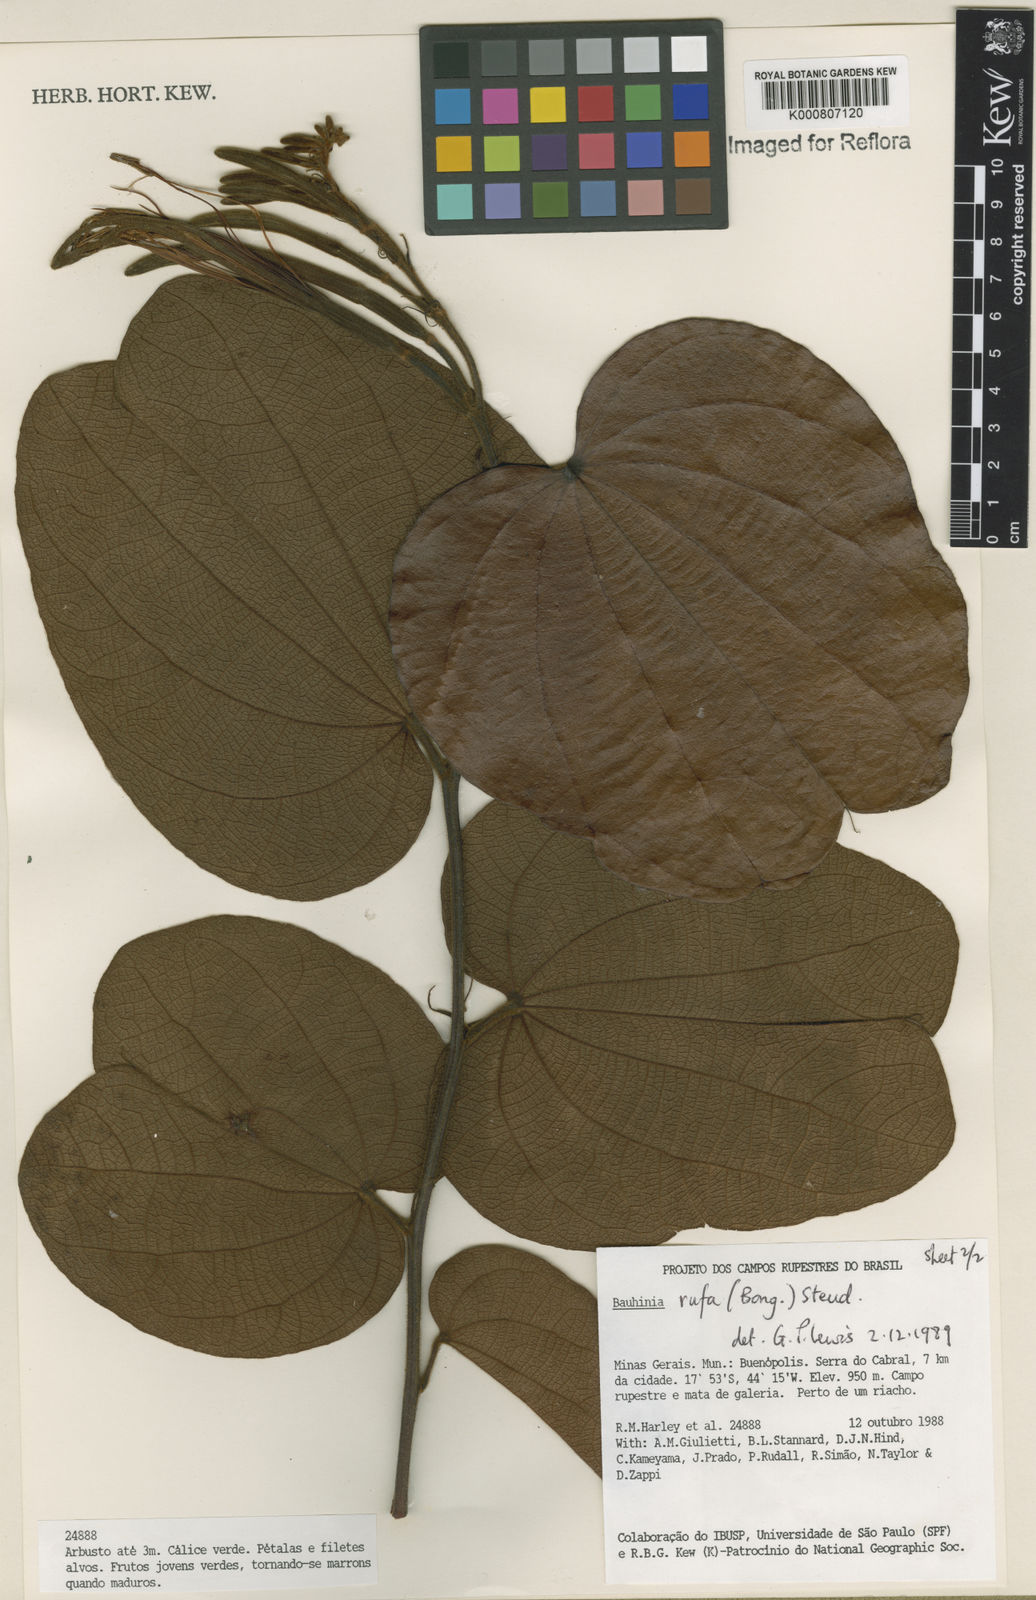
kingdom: Plantae
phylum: Tracheophyta
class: Magnoliopsida
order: Fabales
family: Fabaceae
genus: Bauhinia
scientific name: Bauhinia rufa
